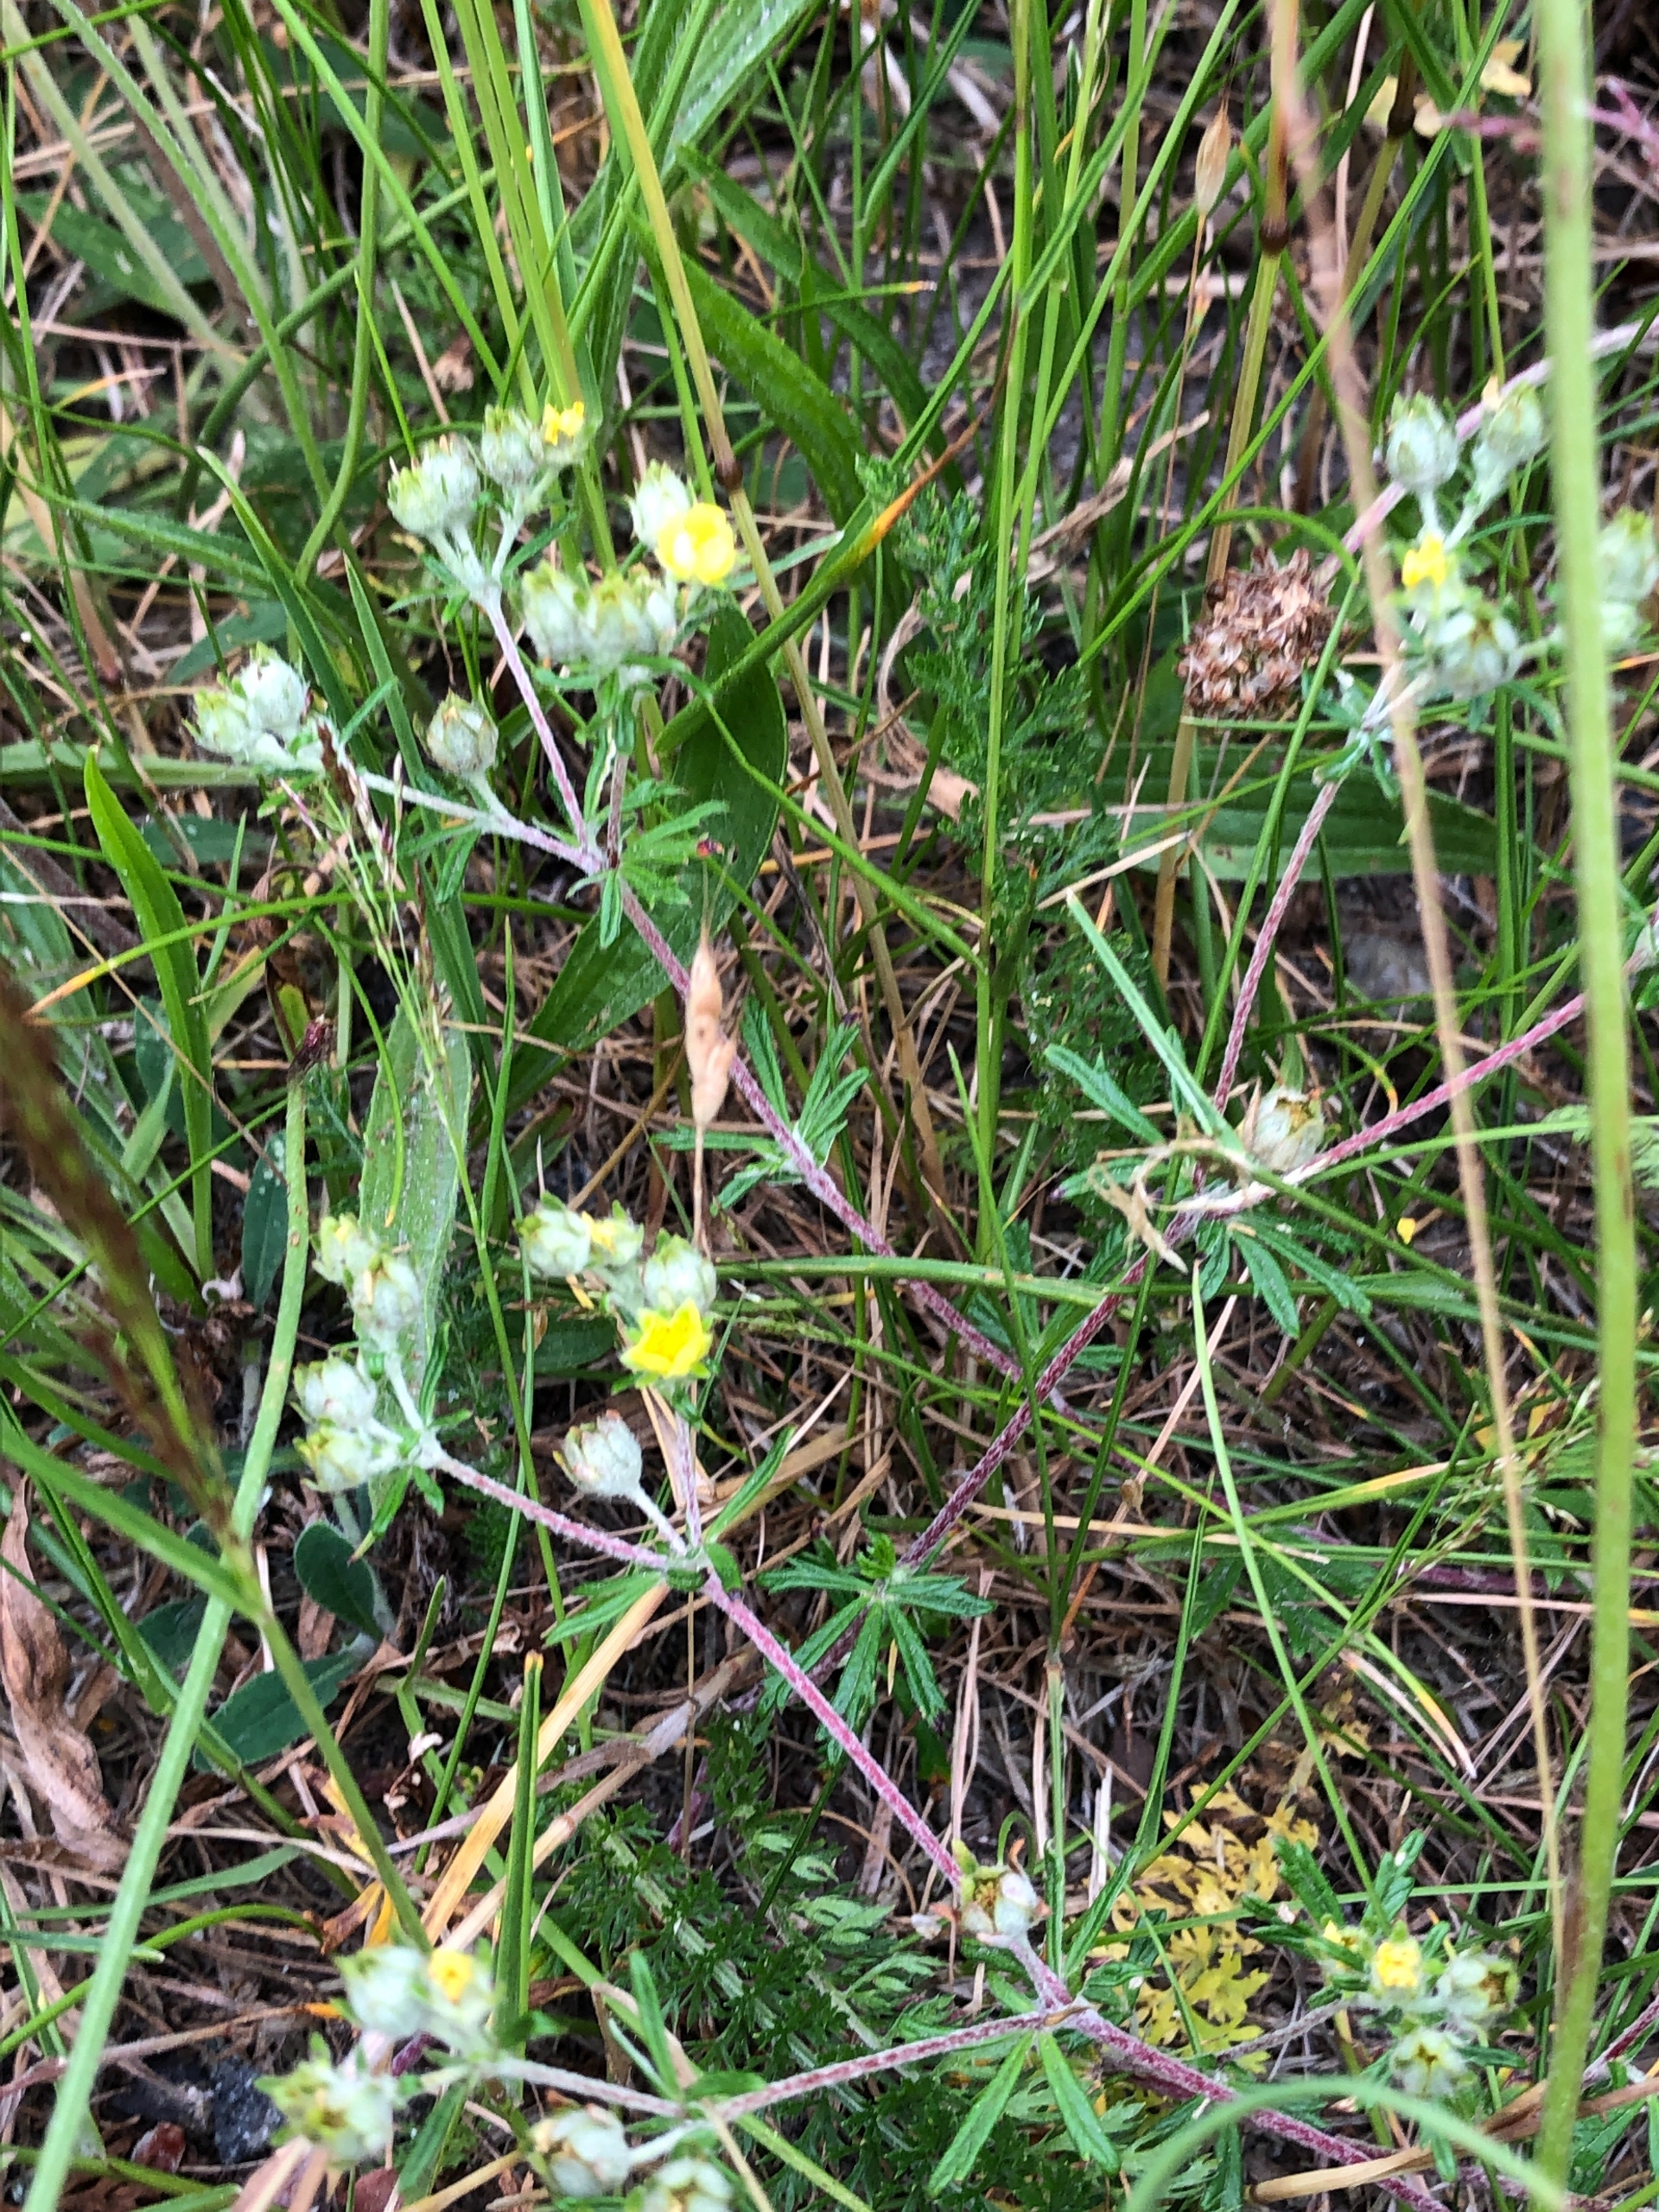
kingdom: Plantae
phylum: Tracheophyta
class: Magnoliopsida
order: Rosales
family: Rosaceae
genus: Potentilla
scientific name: Potentilla argentea
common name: Sølv-potentil
